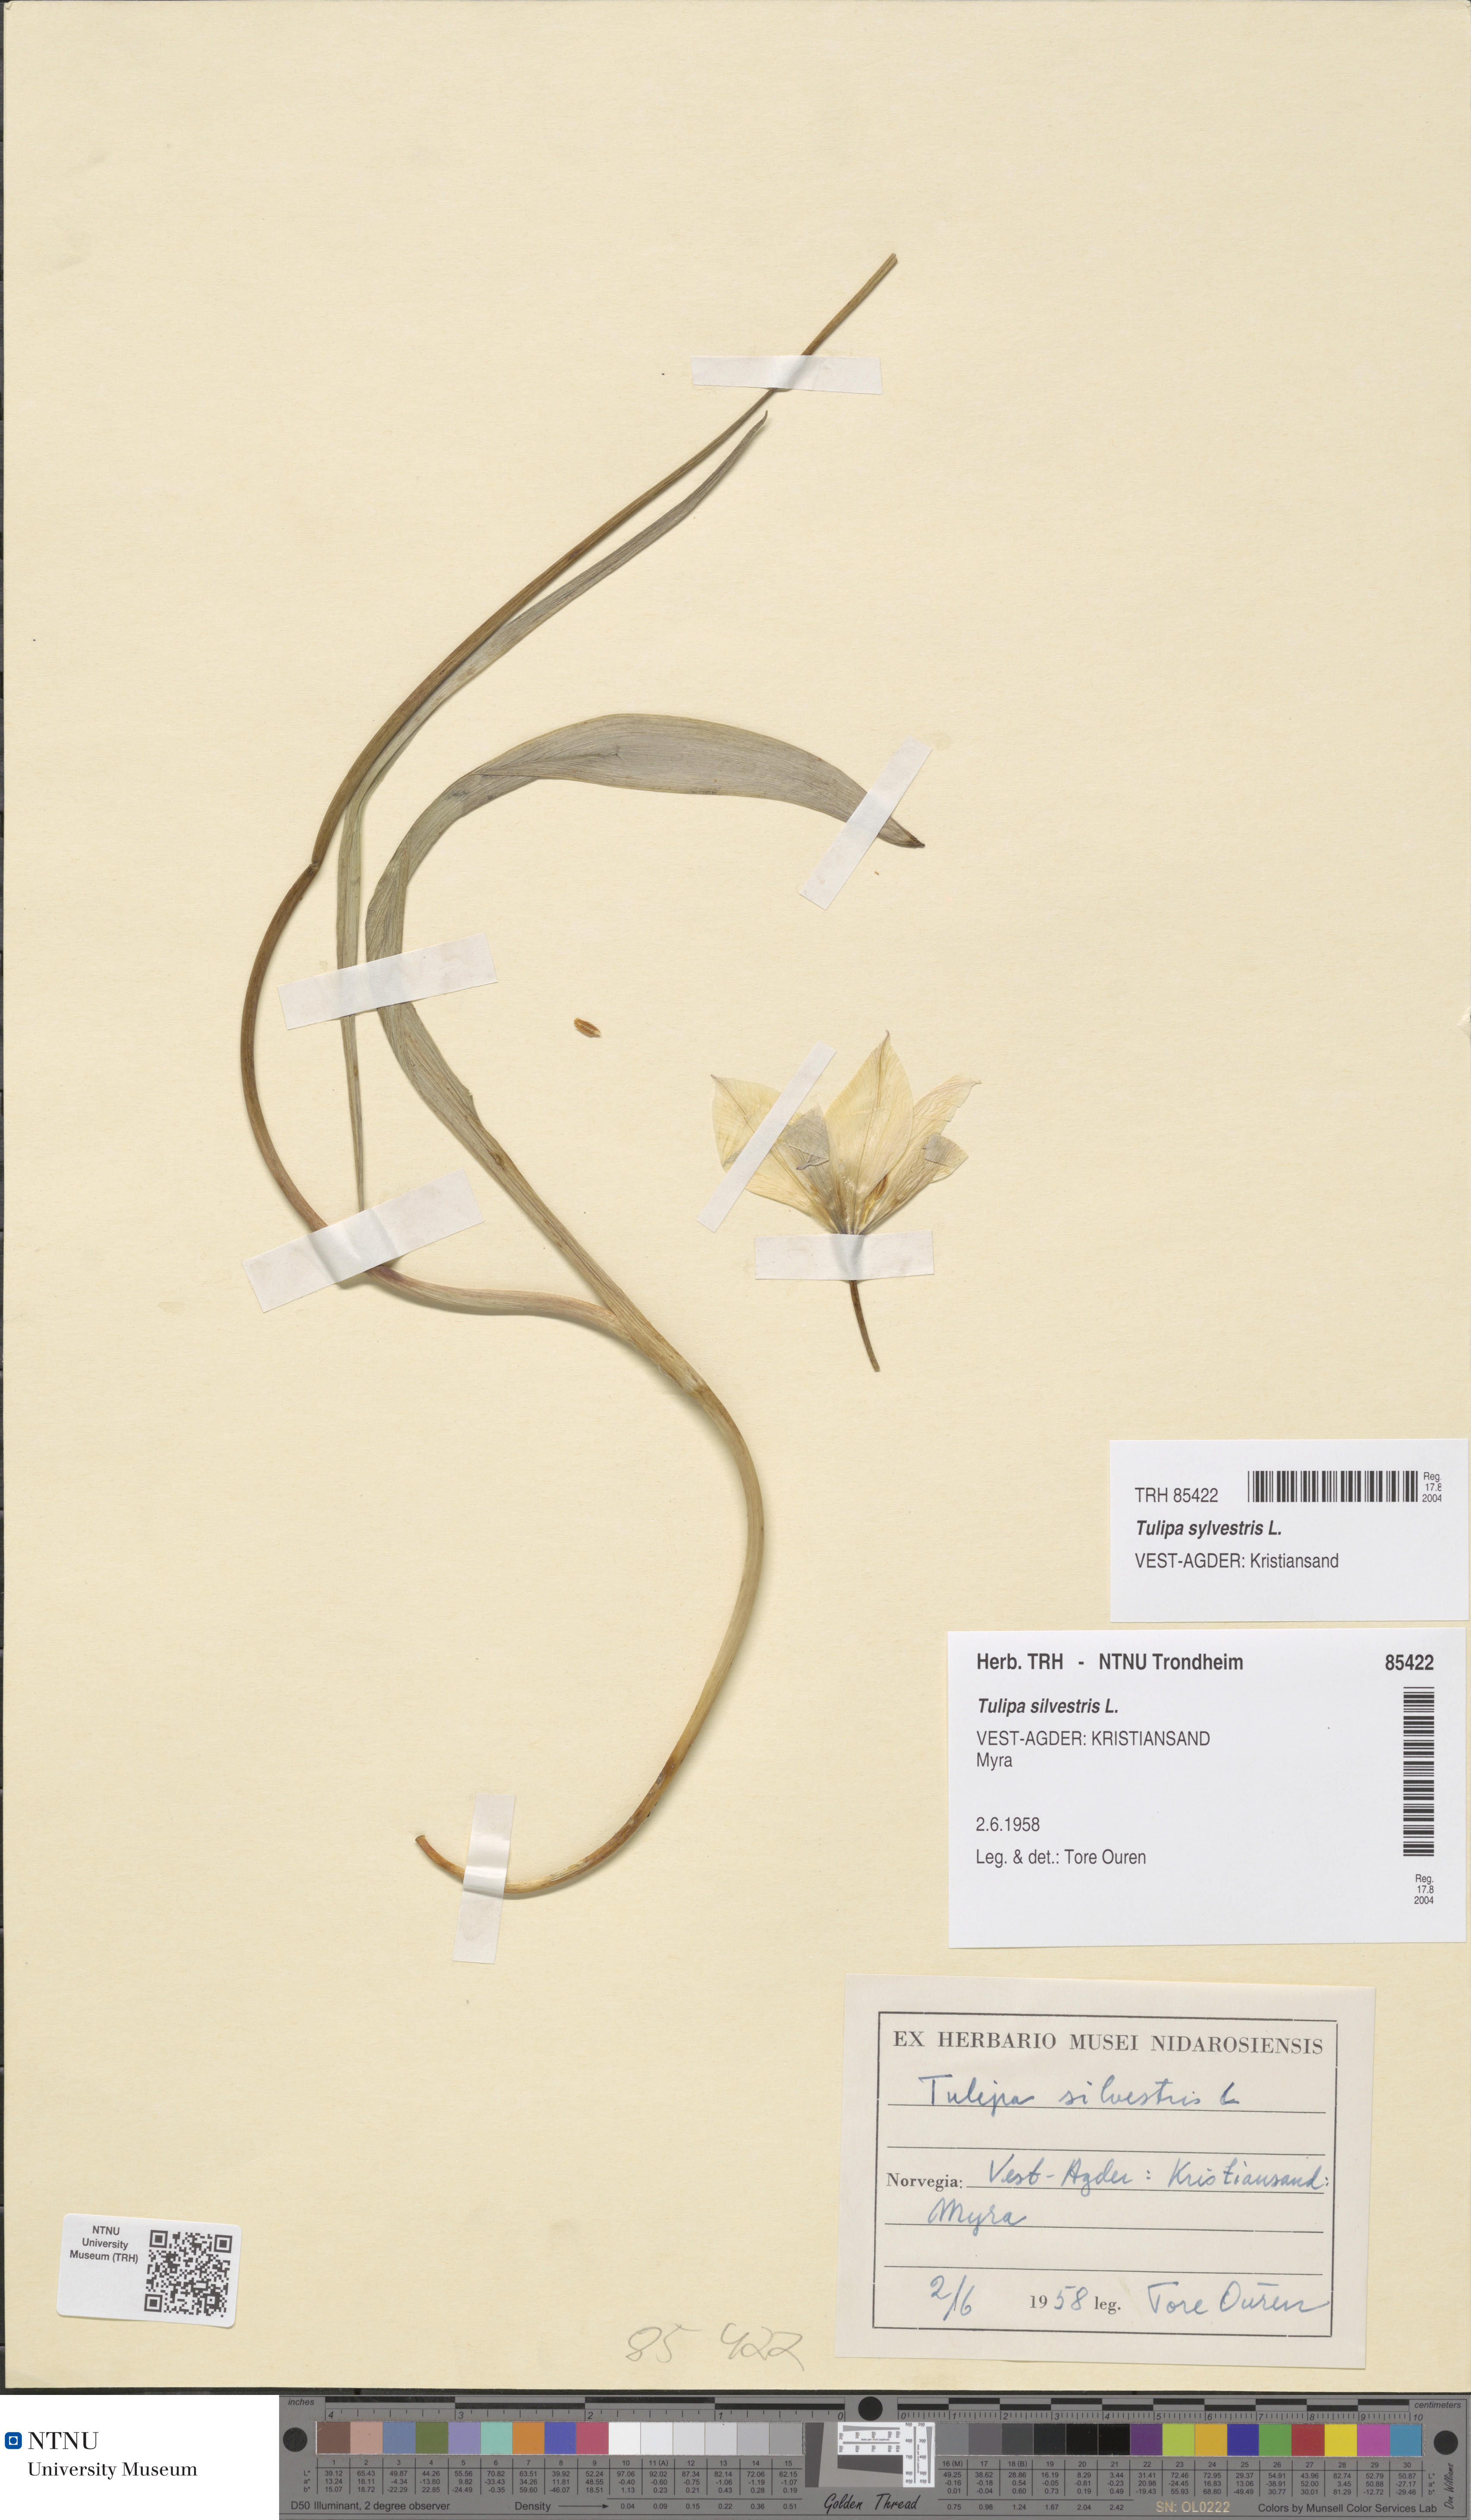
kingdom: Plantae
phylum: Tracheophyta
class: Liliopsida
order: Liliales
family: Liliaceae
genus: Tulipa
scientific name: Tulipa sylvestris
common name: Wild tulip
